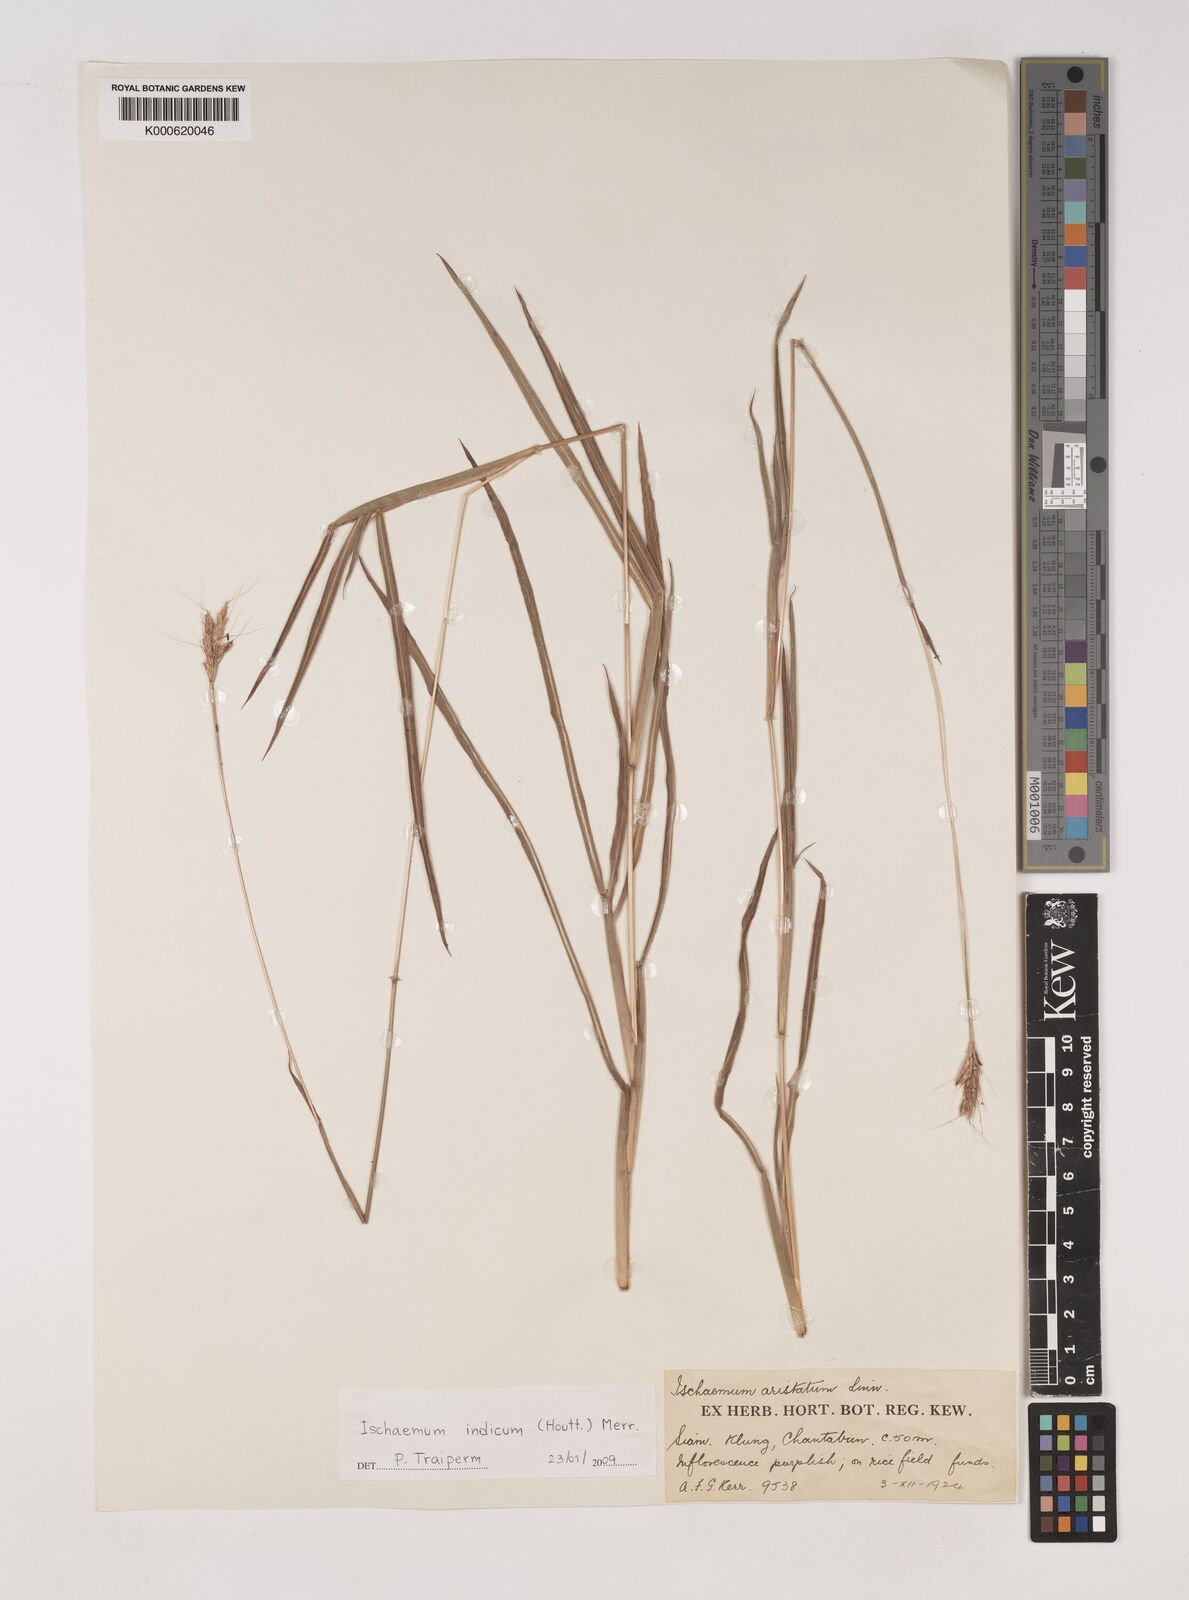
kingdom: Plantae
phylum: Tracheophyta
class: Liliopsida
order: Poales
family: Poaceae
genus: Polytrias
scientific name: Polytrias indica
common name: Indian murainagrass
